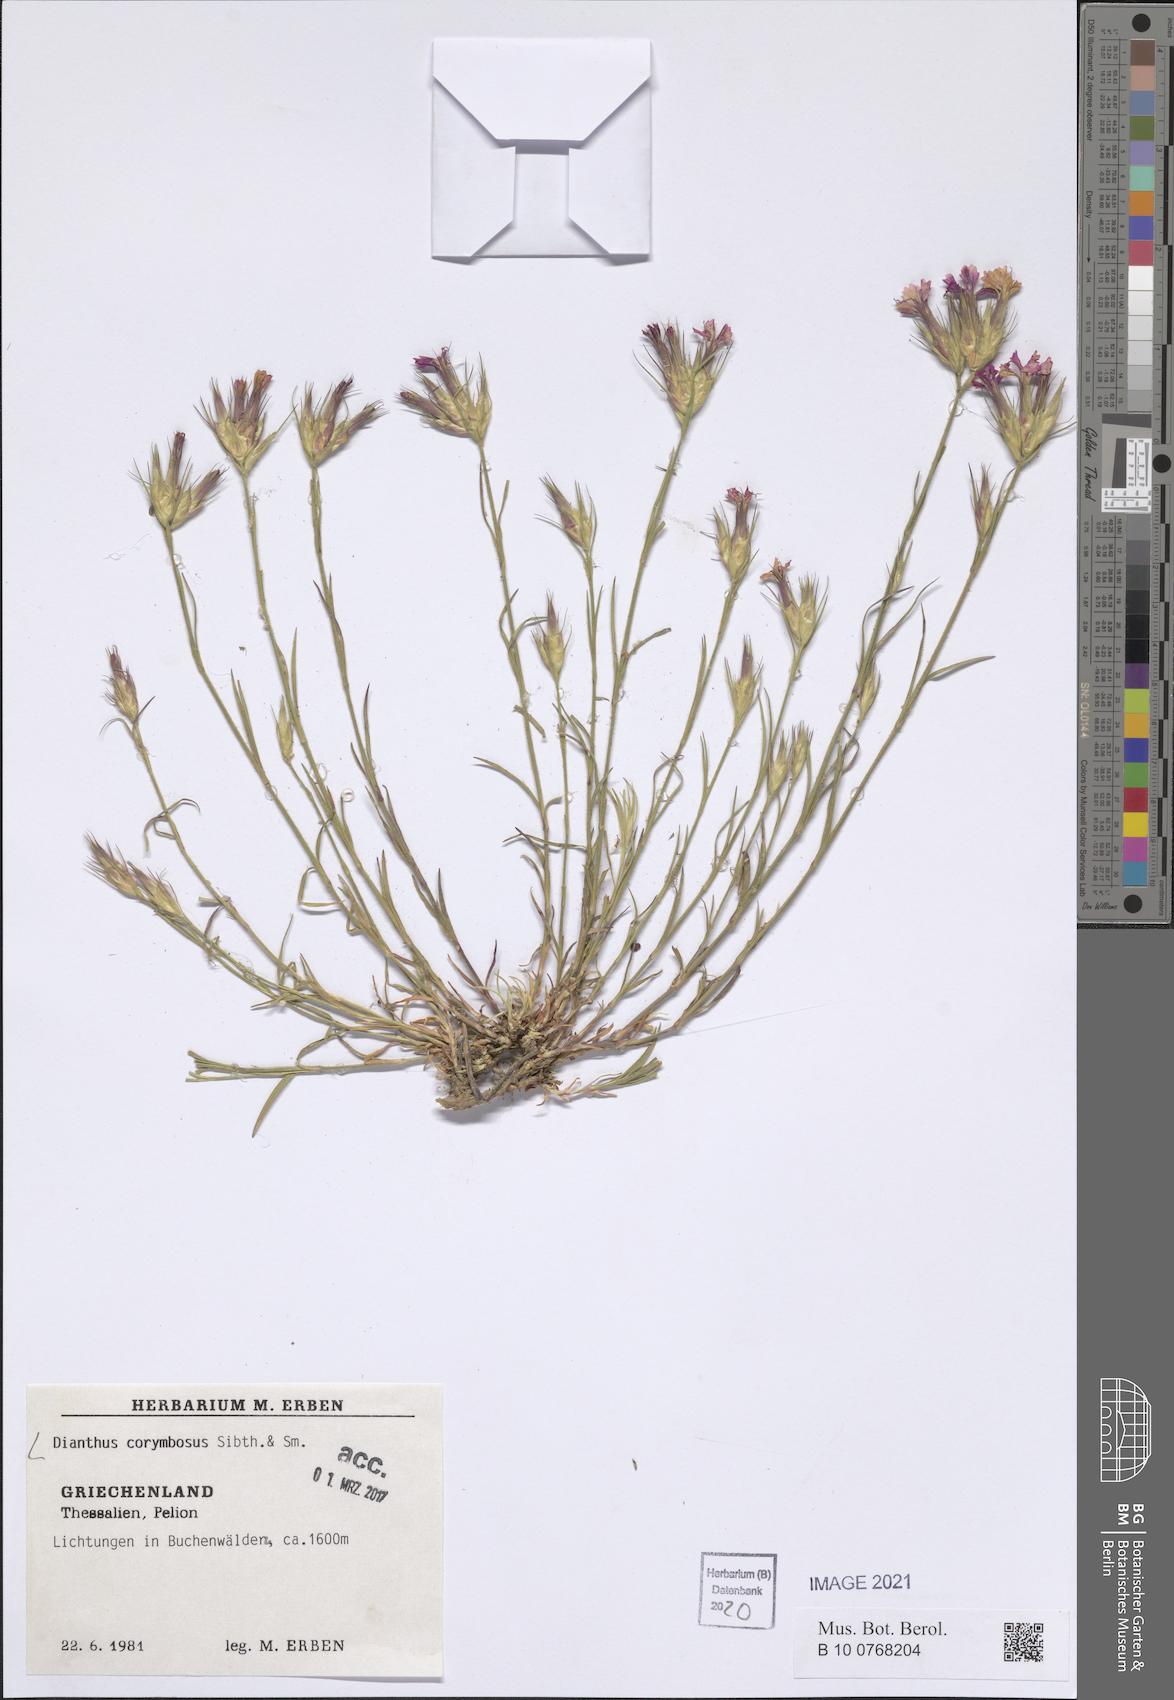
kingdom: Plantae
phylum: Tracheophyta
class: Magnoliopsida
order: Caryophyllales
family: Caryophyllaceae
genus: Dianthus
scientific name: Dianthus corymbosus
